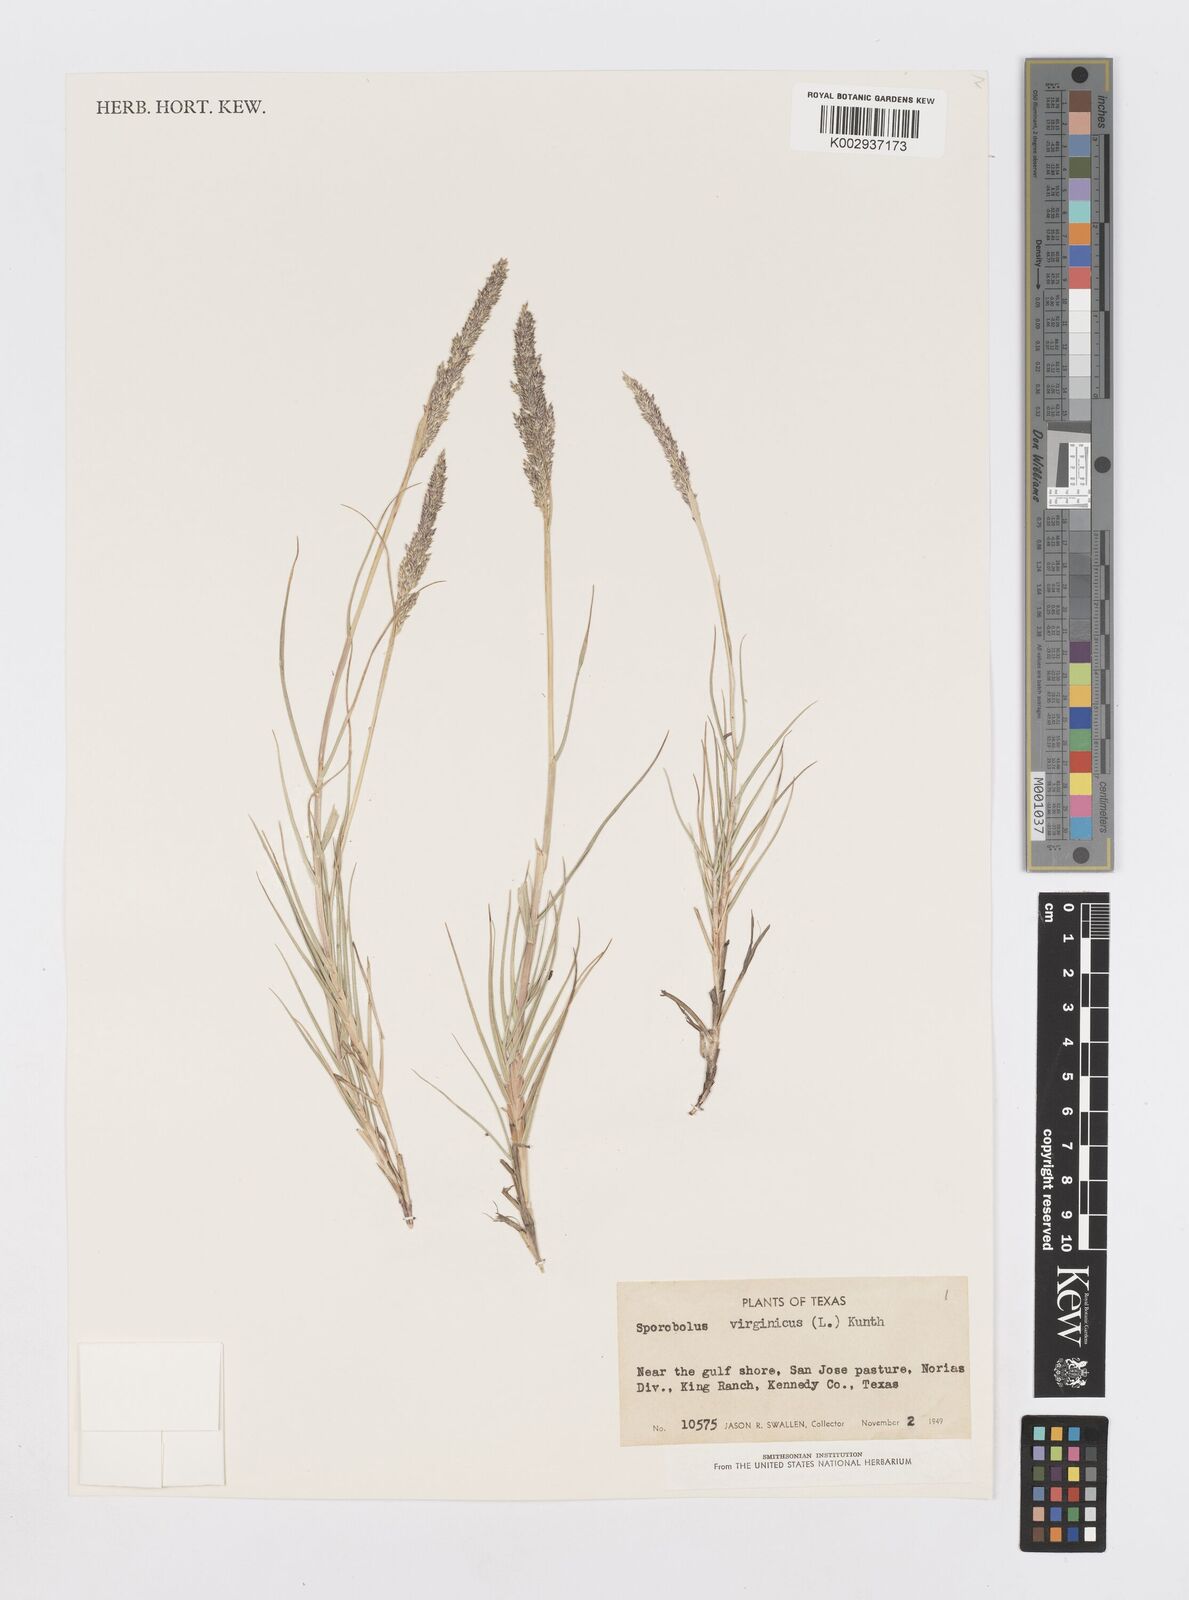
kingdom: Plantae
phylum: Tracheophyta
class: Liliopsida
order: Poales
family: Poaceae
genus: Sporobolus
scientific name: Sporobolus virginicus
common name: Beach dropseed
